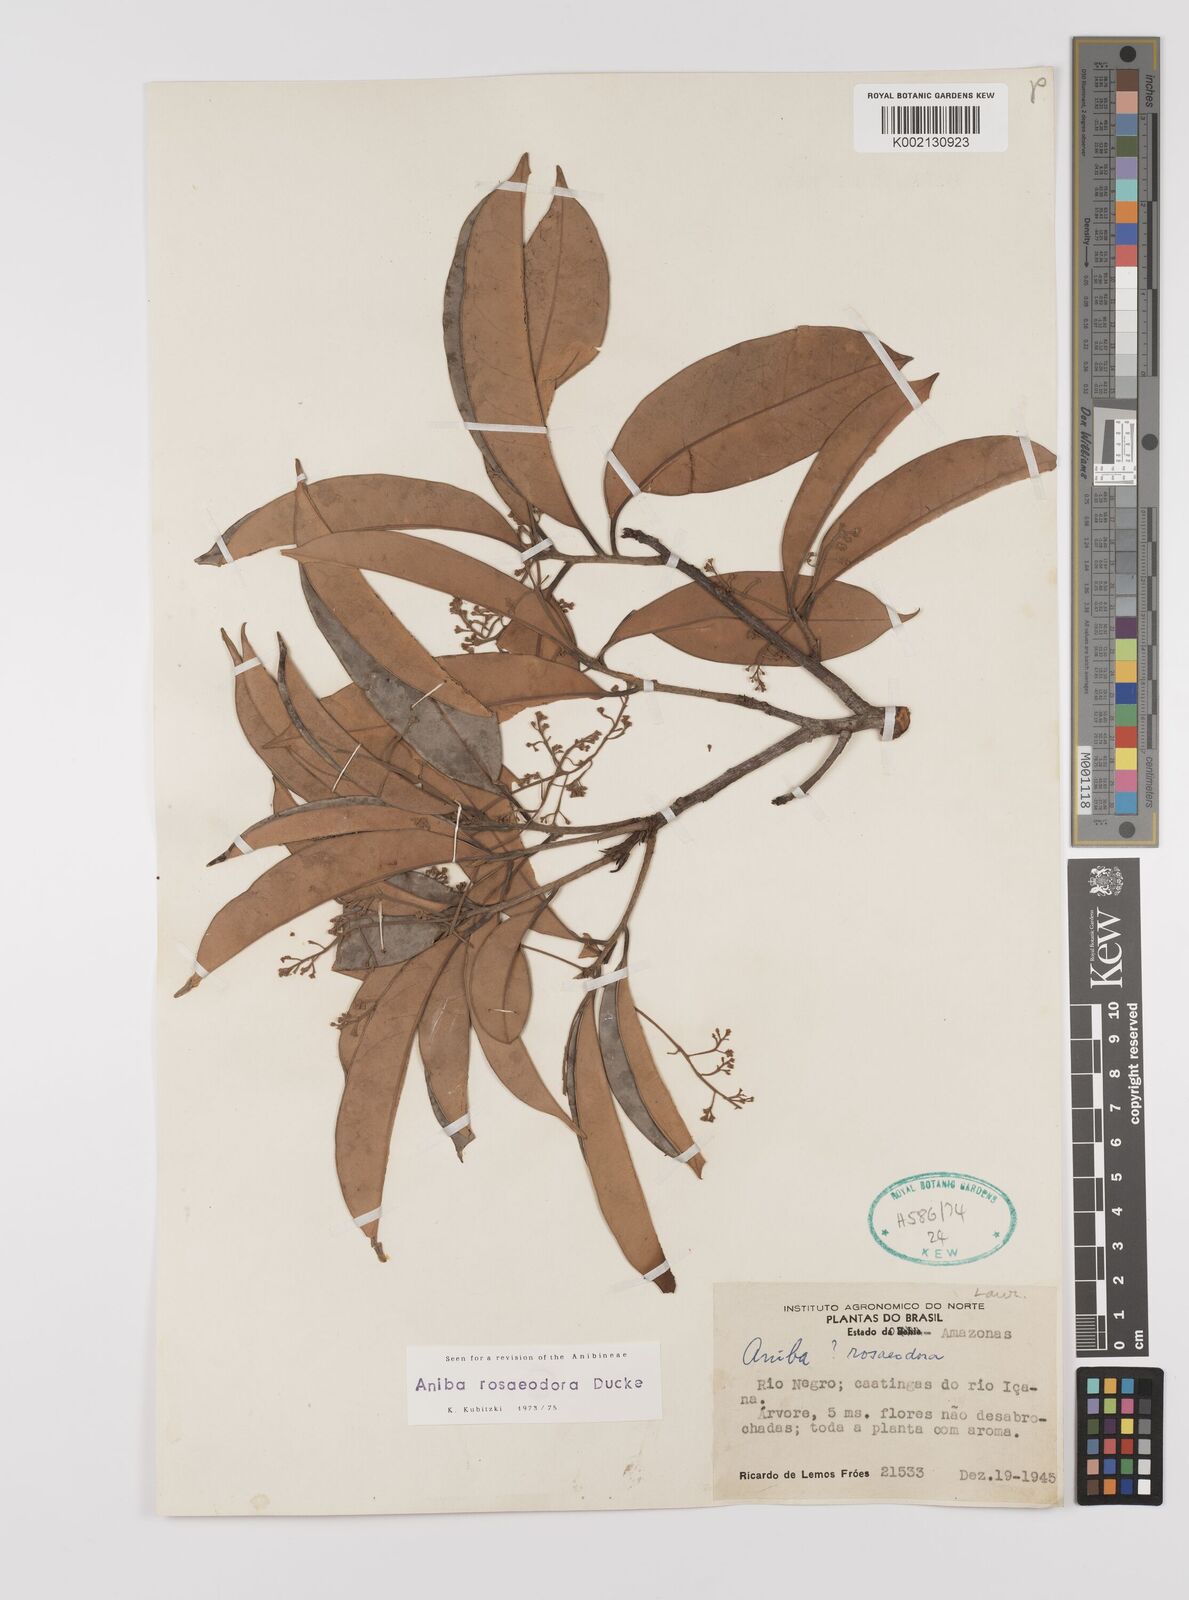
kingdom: Plantae
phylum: Tracheophyta
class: Magnoliopsida
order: Laurales
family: Lauraceae
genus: Aniba
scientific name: Aniba rosodora
